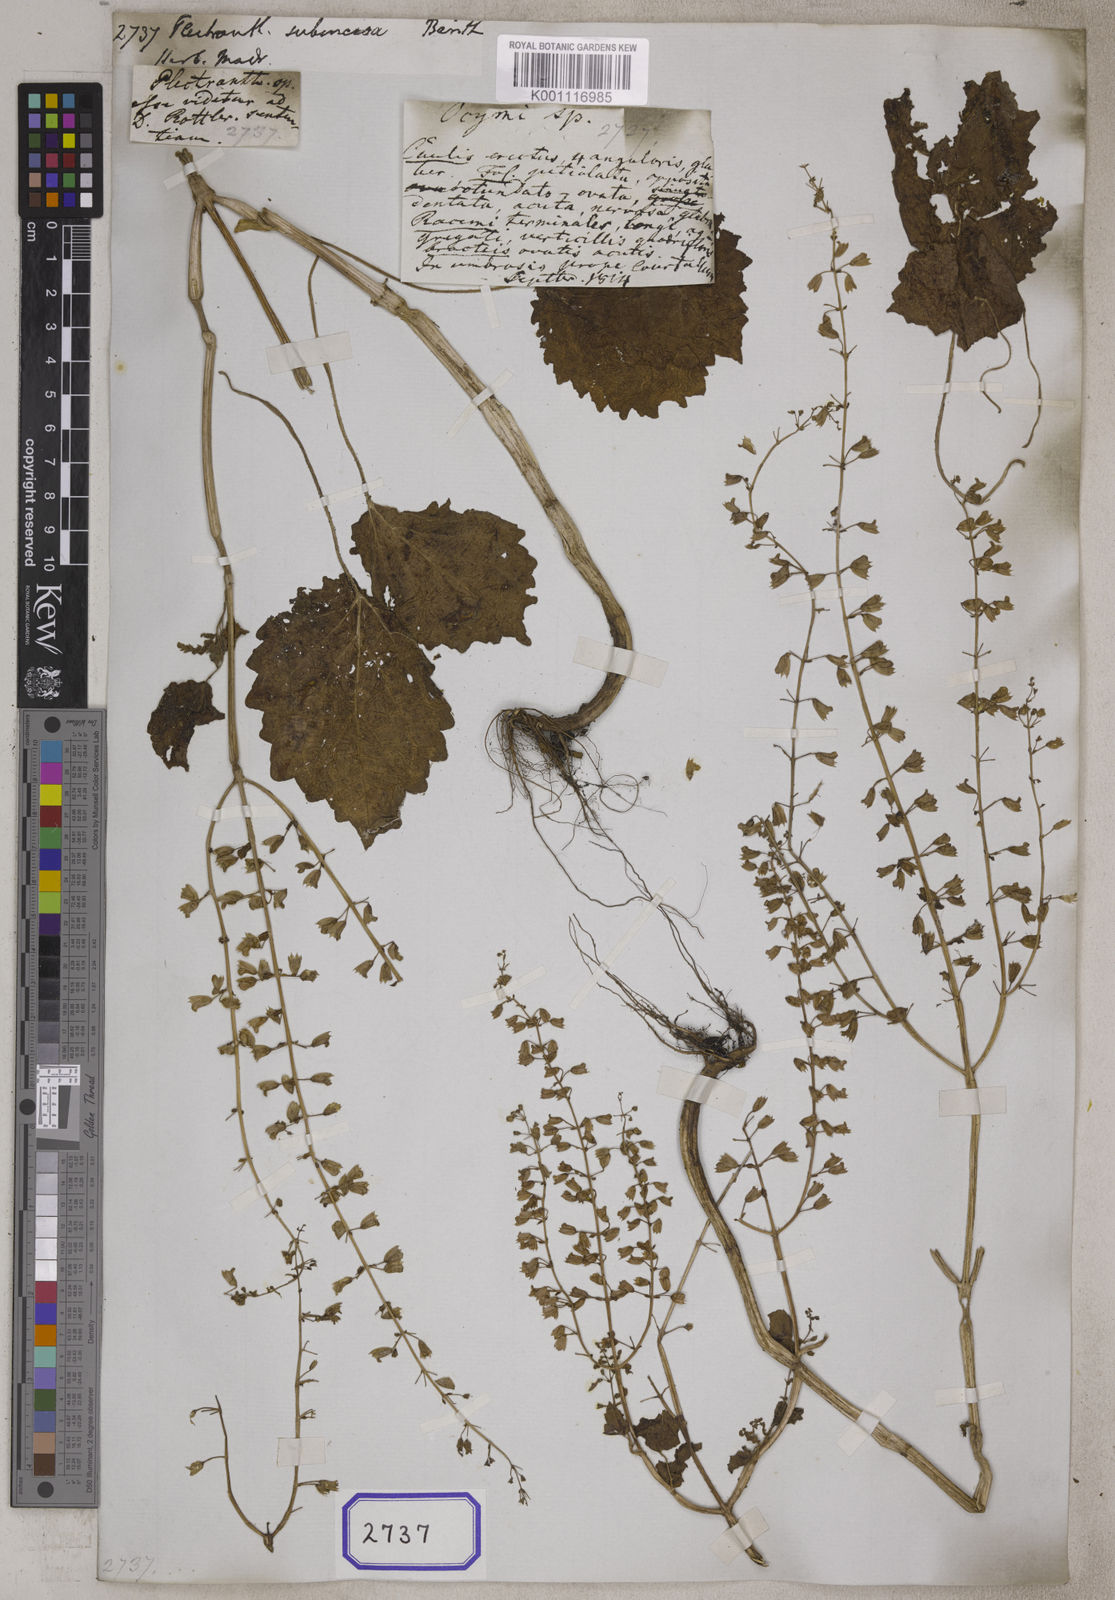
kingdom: Plantae
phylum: Tracheophyta
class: Magnoliopsida
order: Lamiales
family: Lamiaceae
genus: Equilabium
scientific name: Equilabium subincisum
